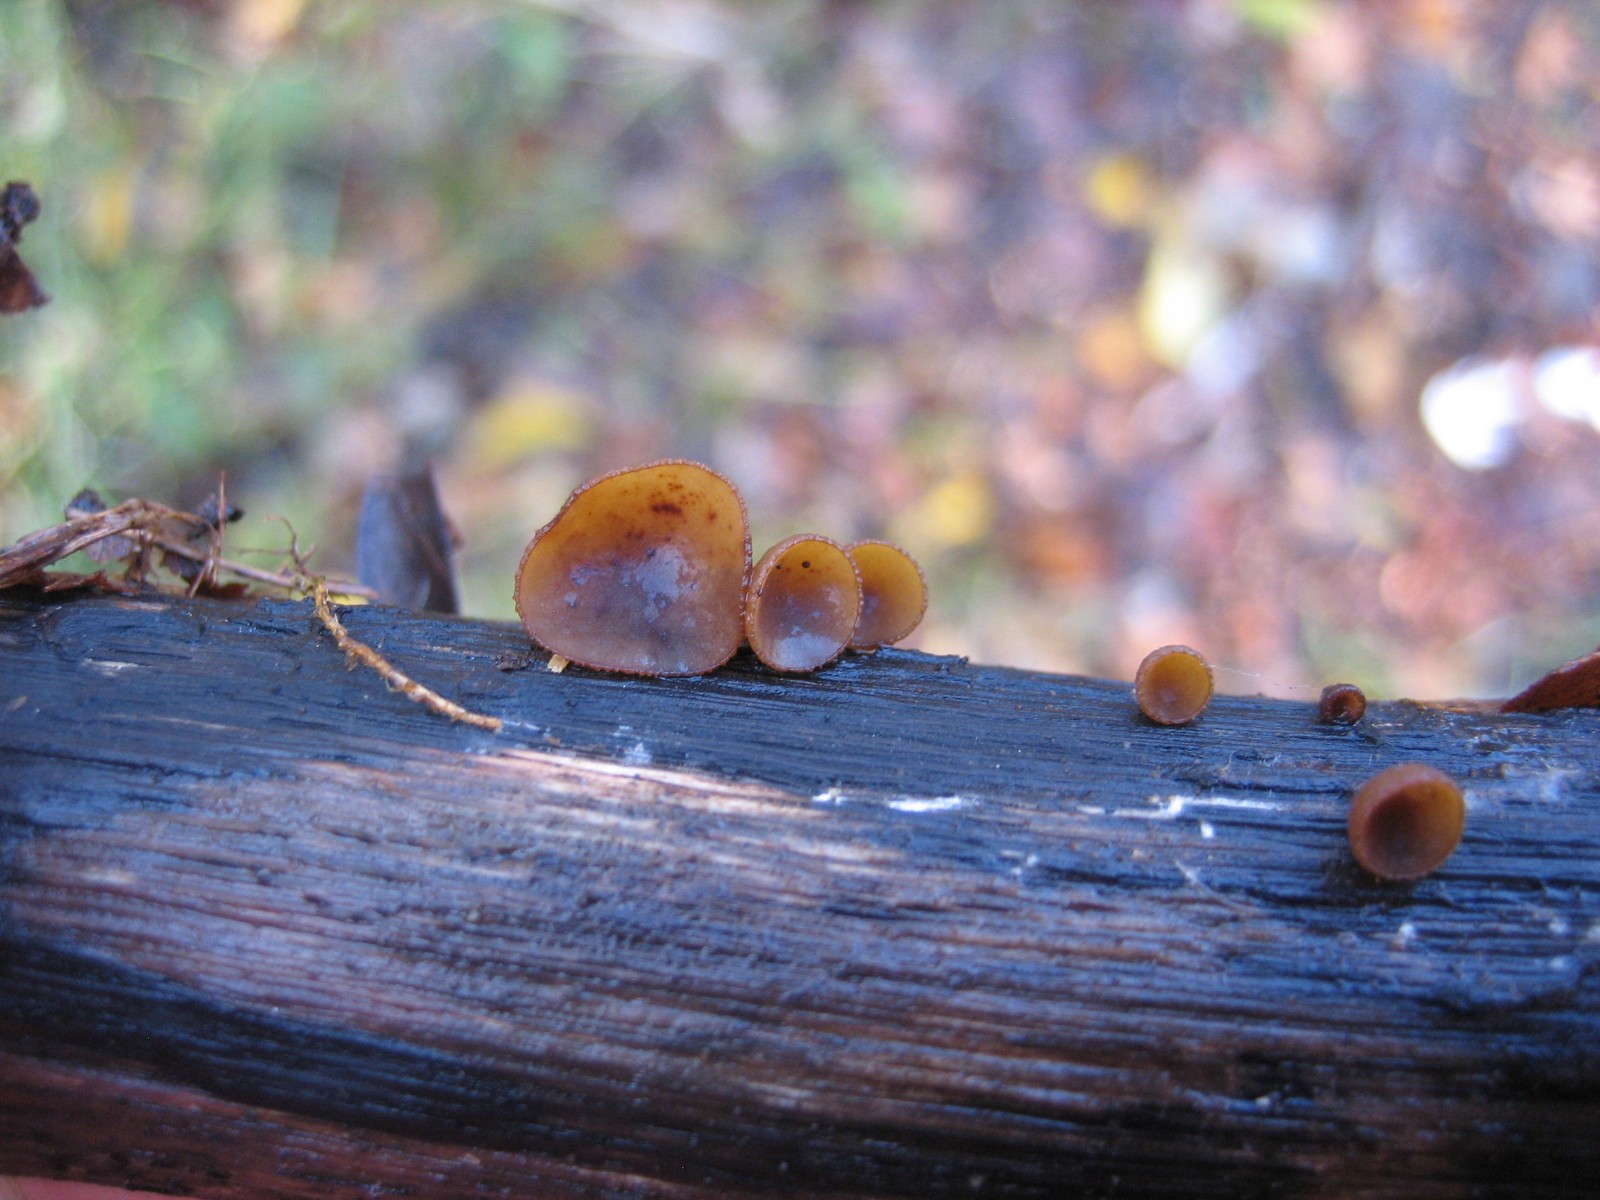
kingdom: Fungi
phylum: Ascomycota
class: Leotiomycetes
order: Helotiales
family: Rutstroemiaceae
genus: Rutstroemia
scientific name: Rutstroemia firma
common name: gren-brunskive
